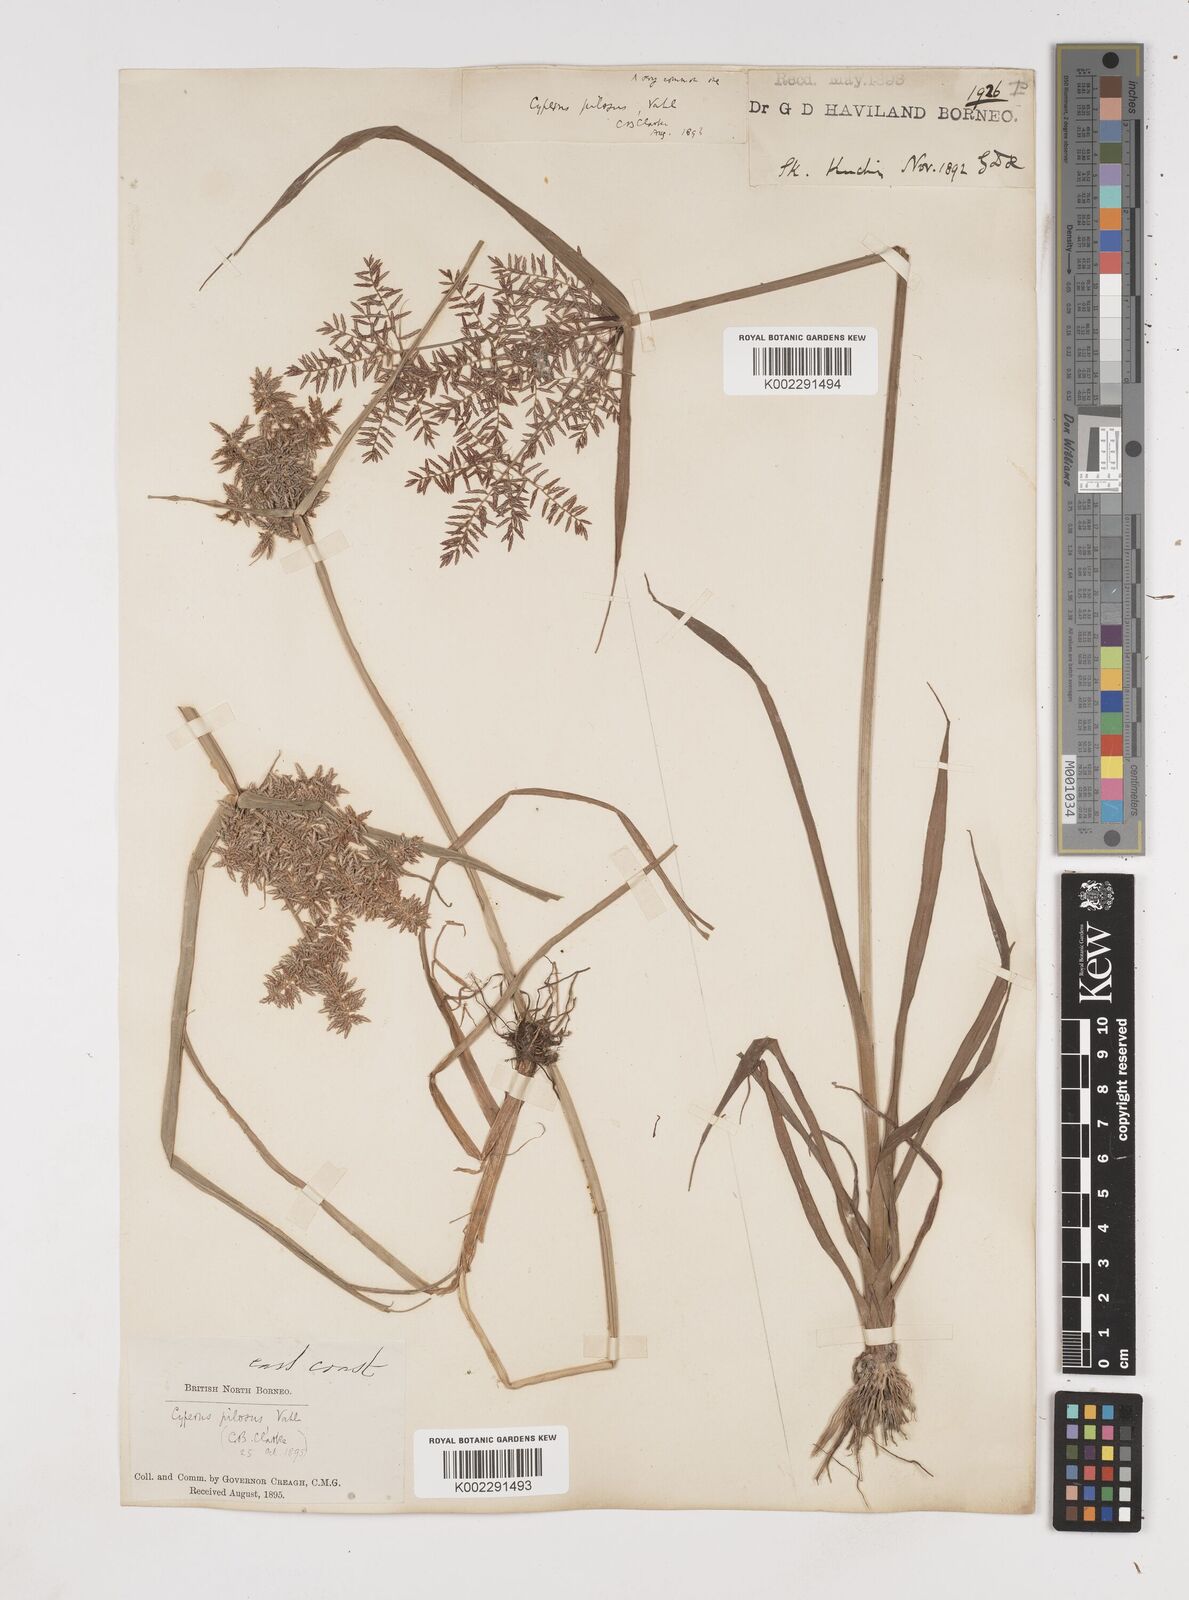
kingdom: Plantae
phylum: Tracheophyta
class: Liliopsida
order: Poales
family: Cyperaceae
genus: Cyperus
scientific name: Cyperus pilosus
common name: Fuzzy flatsedge
